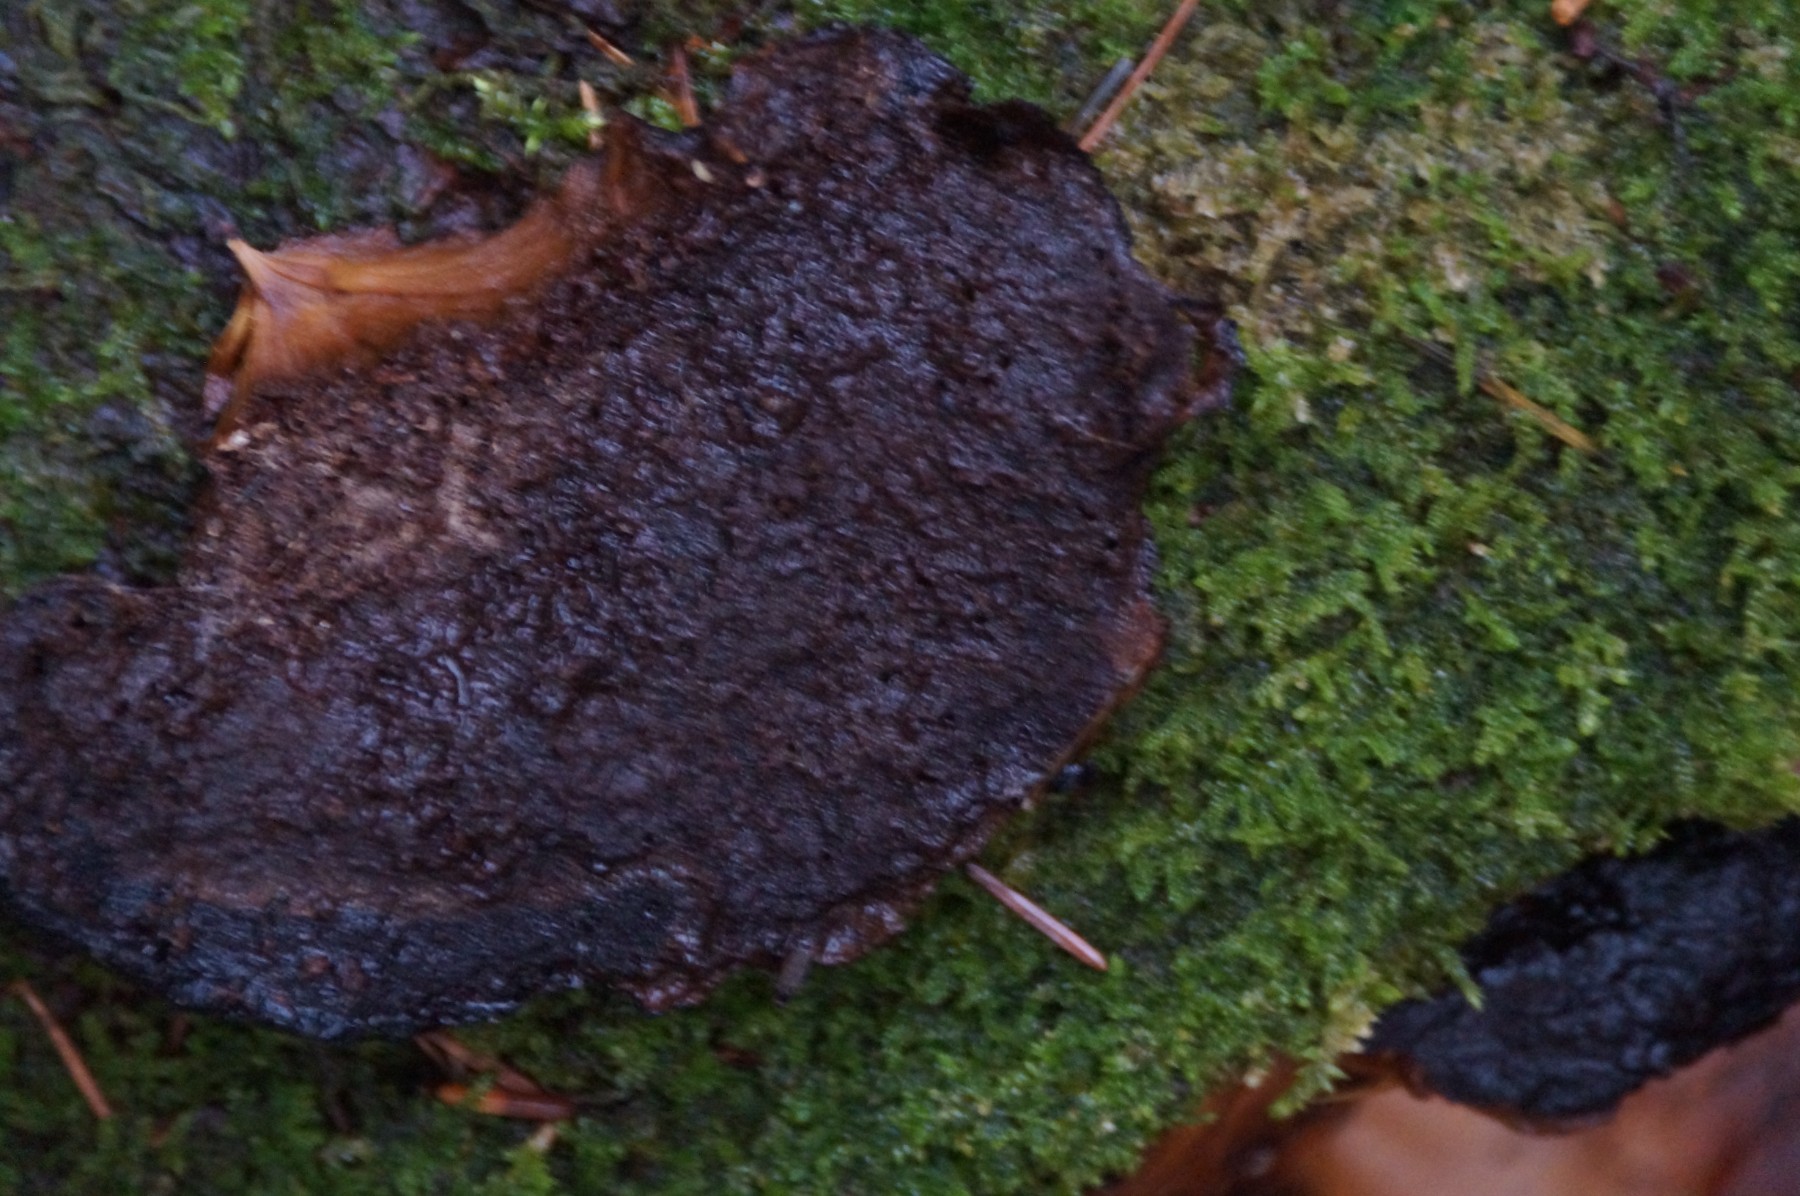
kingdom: Fungi
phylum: Basidiomycota
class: Agaricomycetes
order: Polyporales
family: Ischnodermataceae
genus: Ischnoderma
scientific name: Ischnoderma benzoinum
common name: gran-tjæreporesvamp
